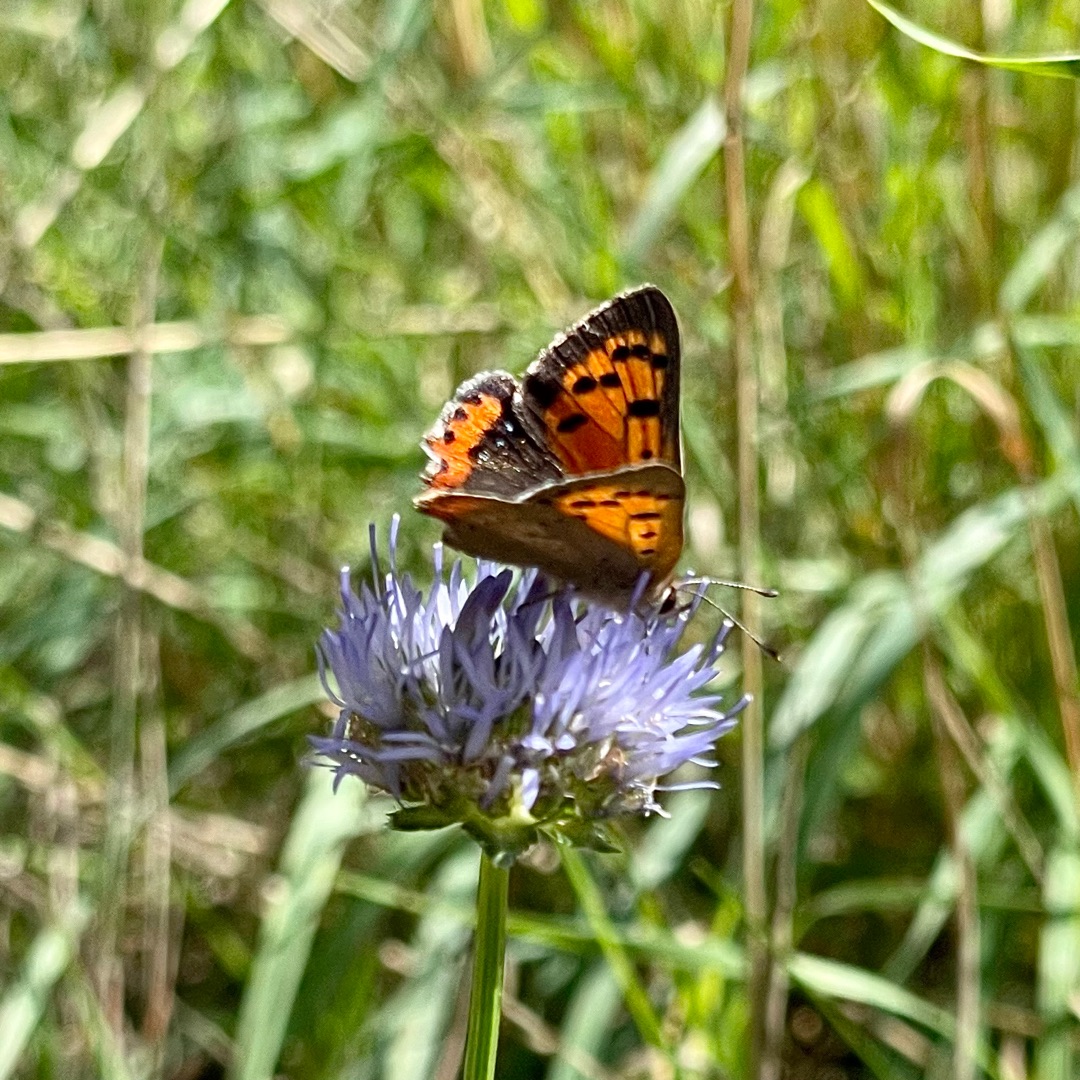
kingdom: Animalia
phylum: Arthropoda
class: Insecta
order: Lepidoptera
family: Lycaenidae
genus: Lycaena
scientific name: Lycaena phlaeas
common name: Lille ildfugl
